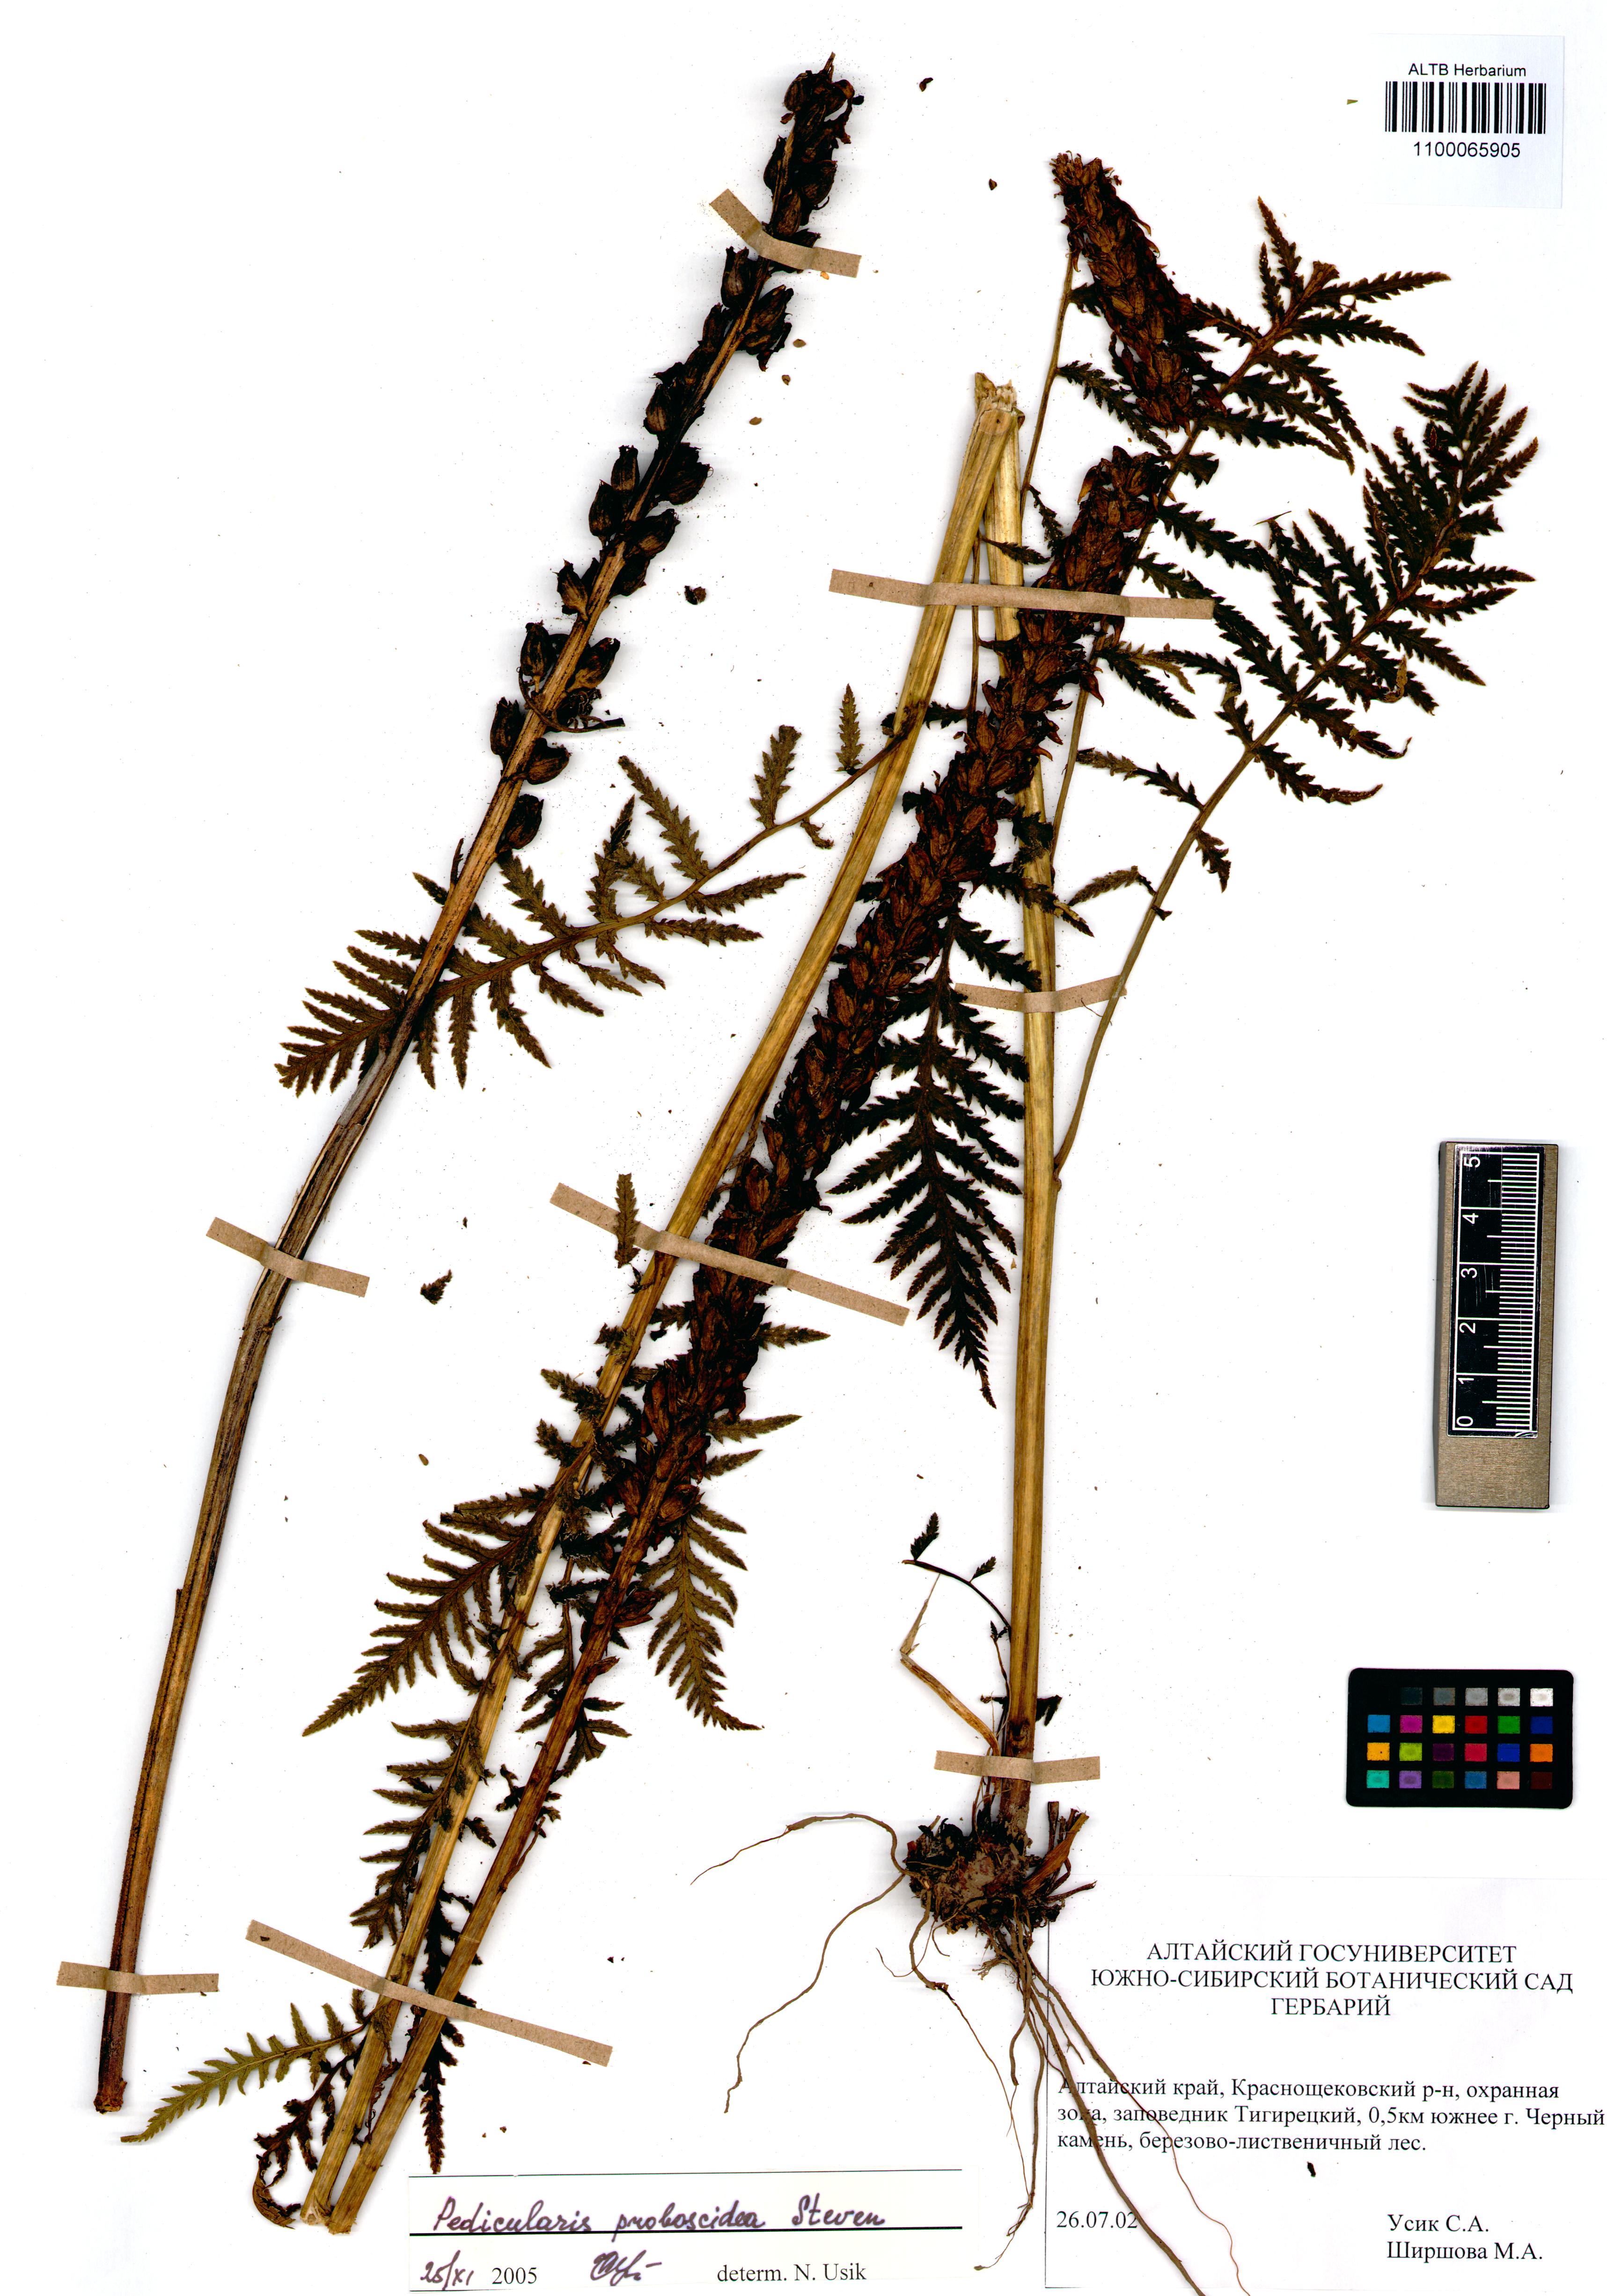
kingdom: Plantae
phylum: Tracheophyta
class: Magnoliopsida
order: Lamiales
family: Orobanchaceae
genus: Pedicularis
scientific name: Pedicularis cenisia
